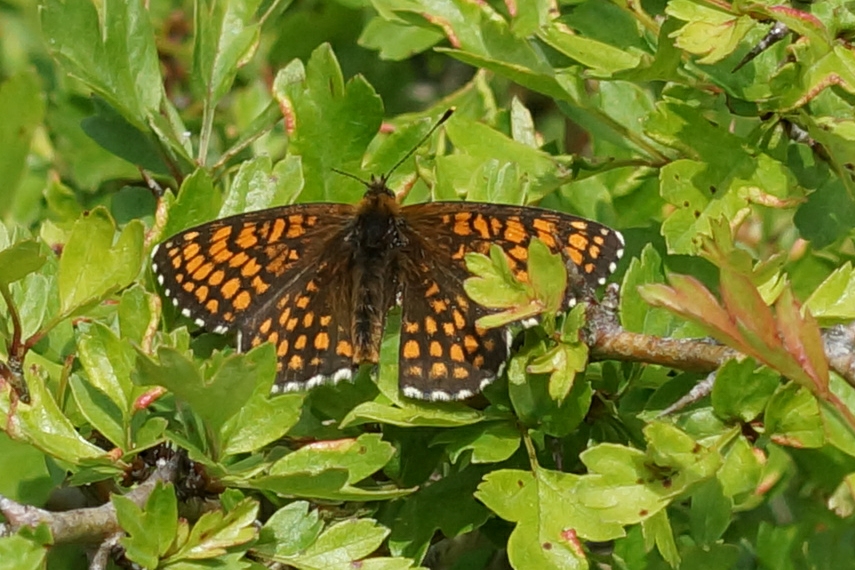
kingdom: Animalia
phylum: Arthropoda
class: Insecta
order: Lepidoptera
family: Nymphalidae
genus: Mellicta
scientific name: Mellicta athalia
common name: Brun pletvinge
